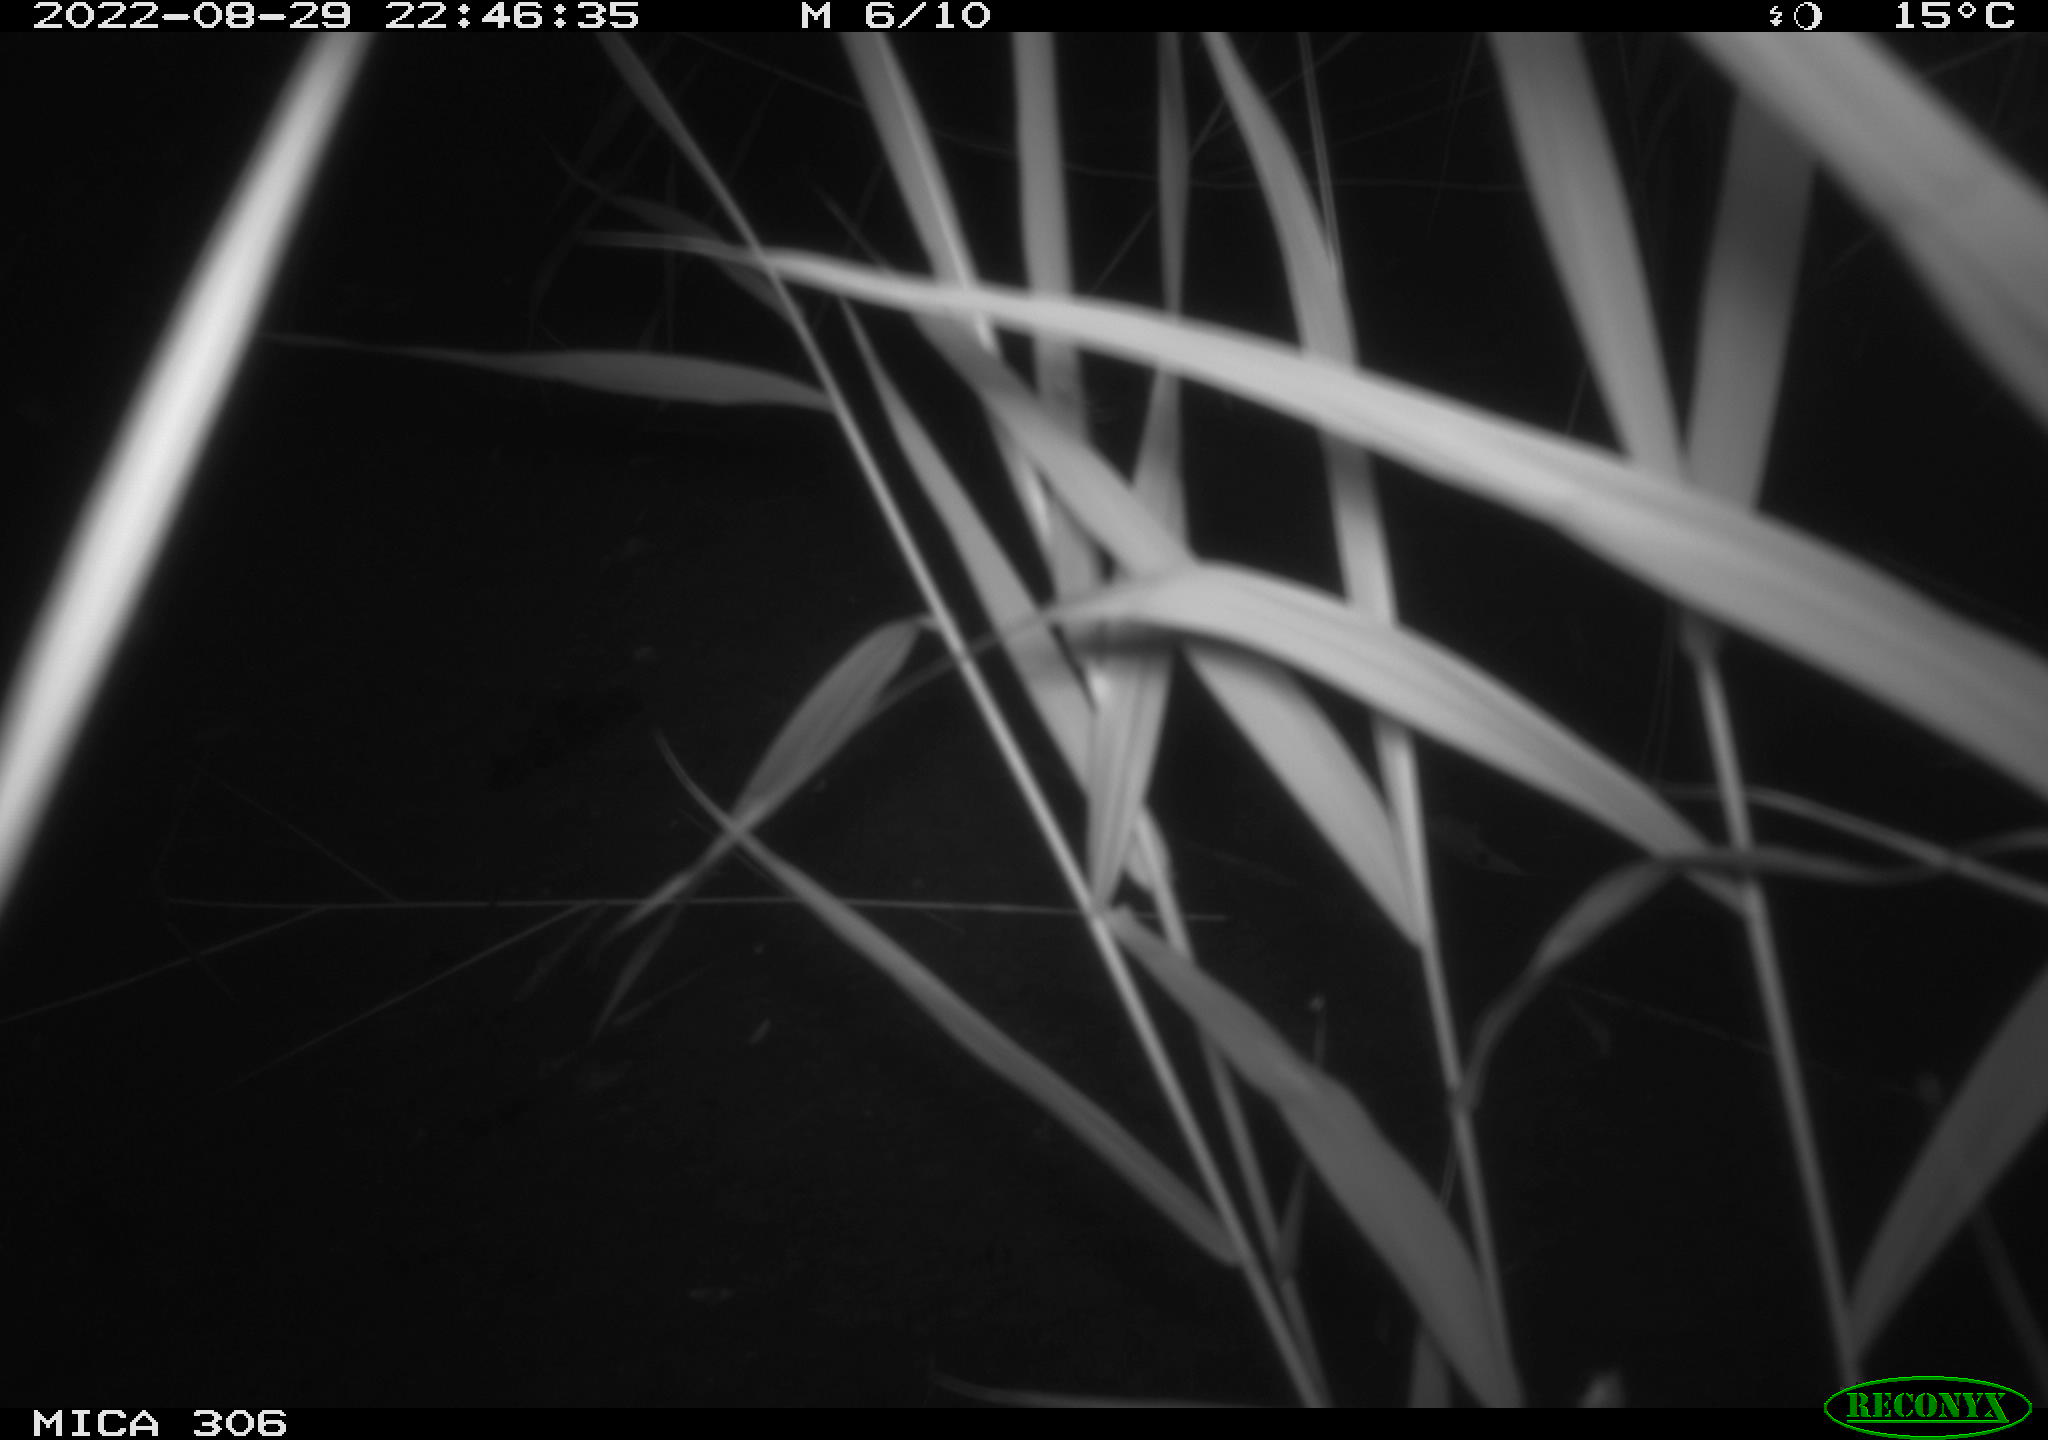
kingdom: Animalia
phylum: Chordata
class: Mammalia
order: Rodentia
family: Muridae
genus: Rattus
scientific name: Rattus norvegicus
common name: Brown rat
